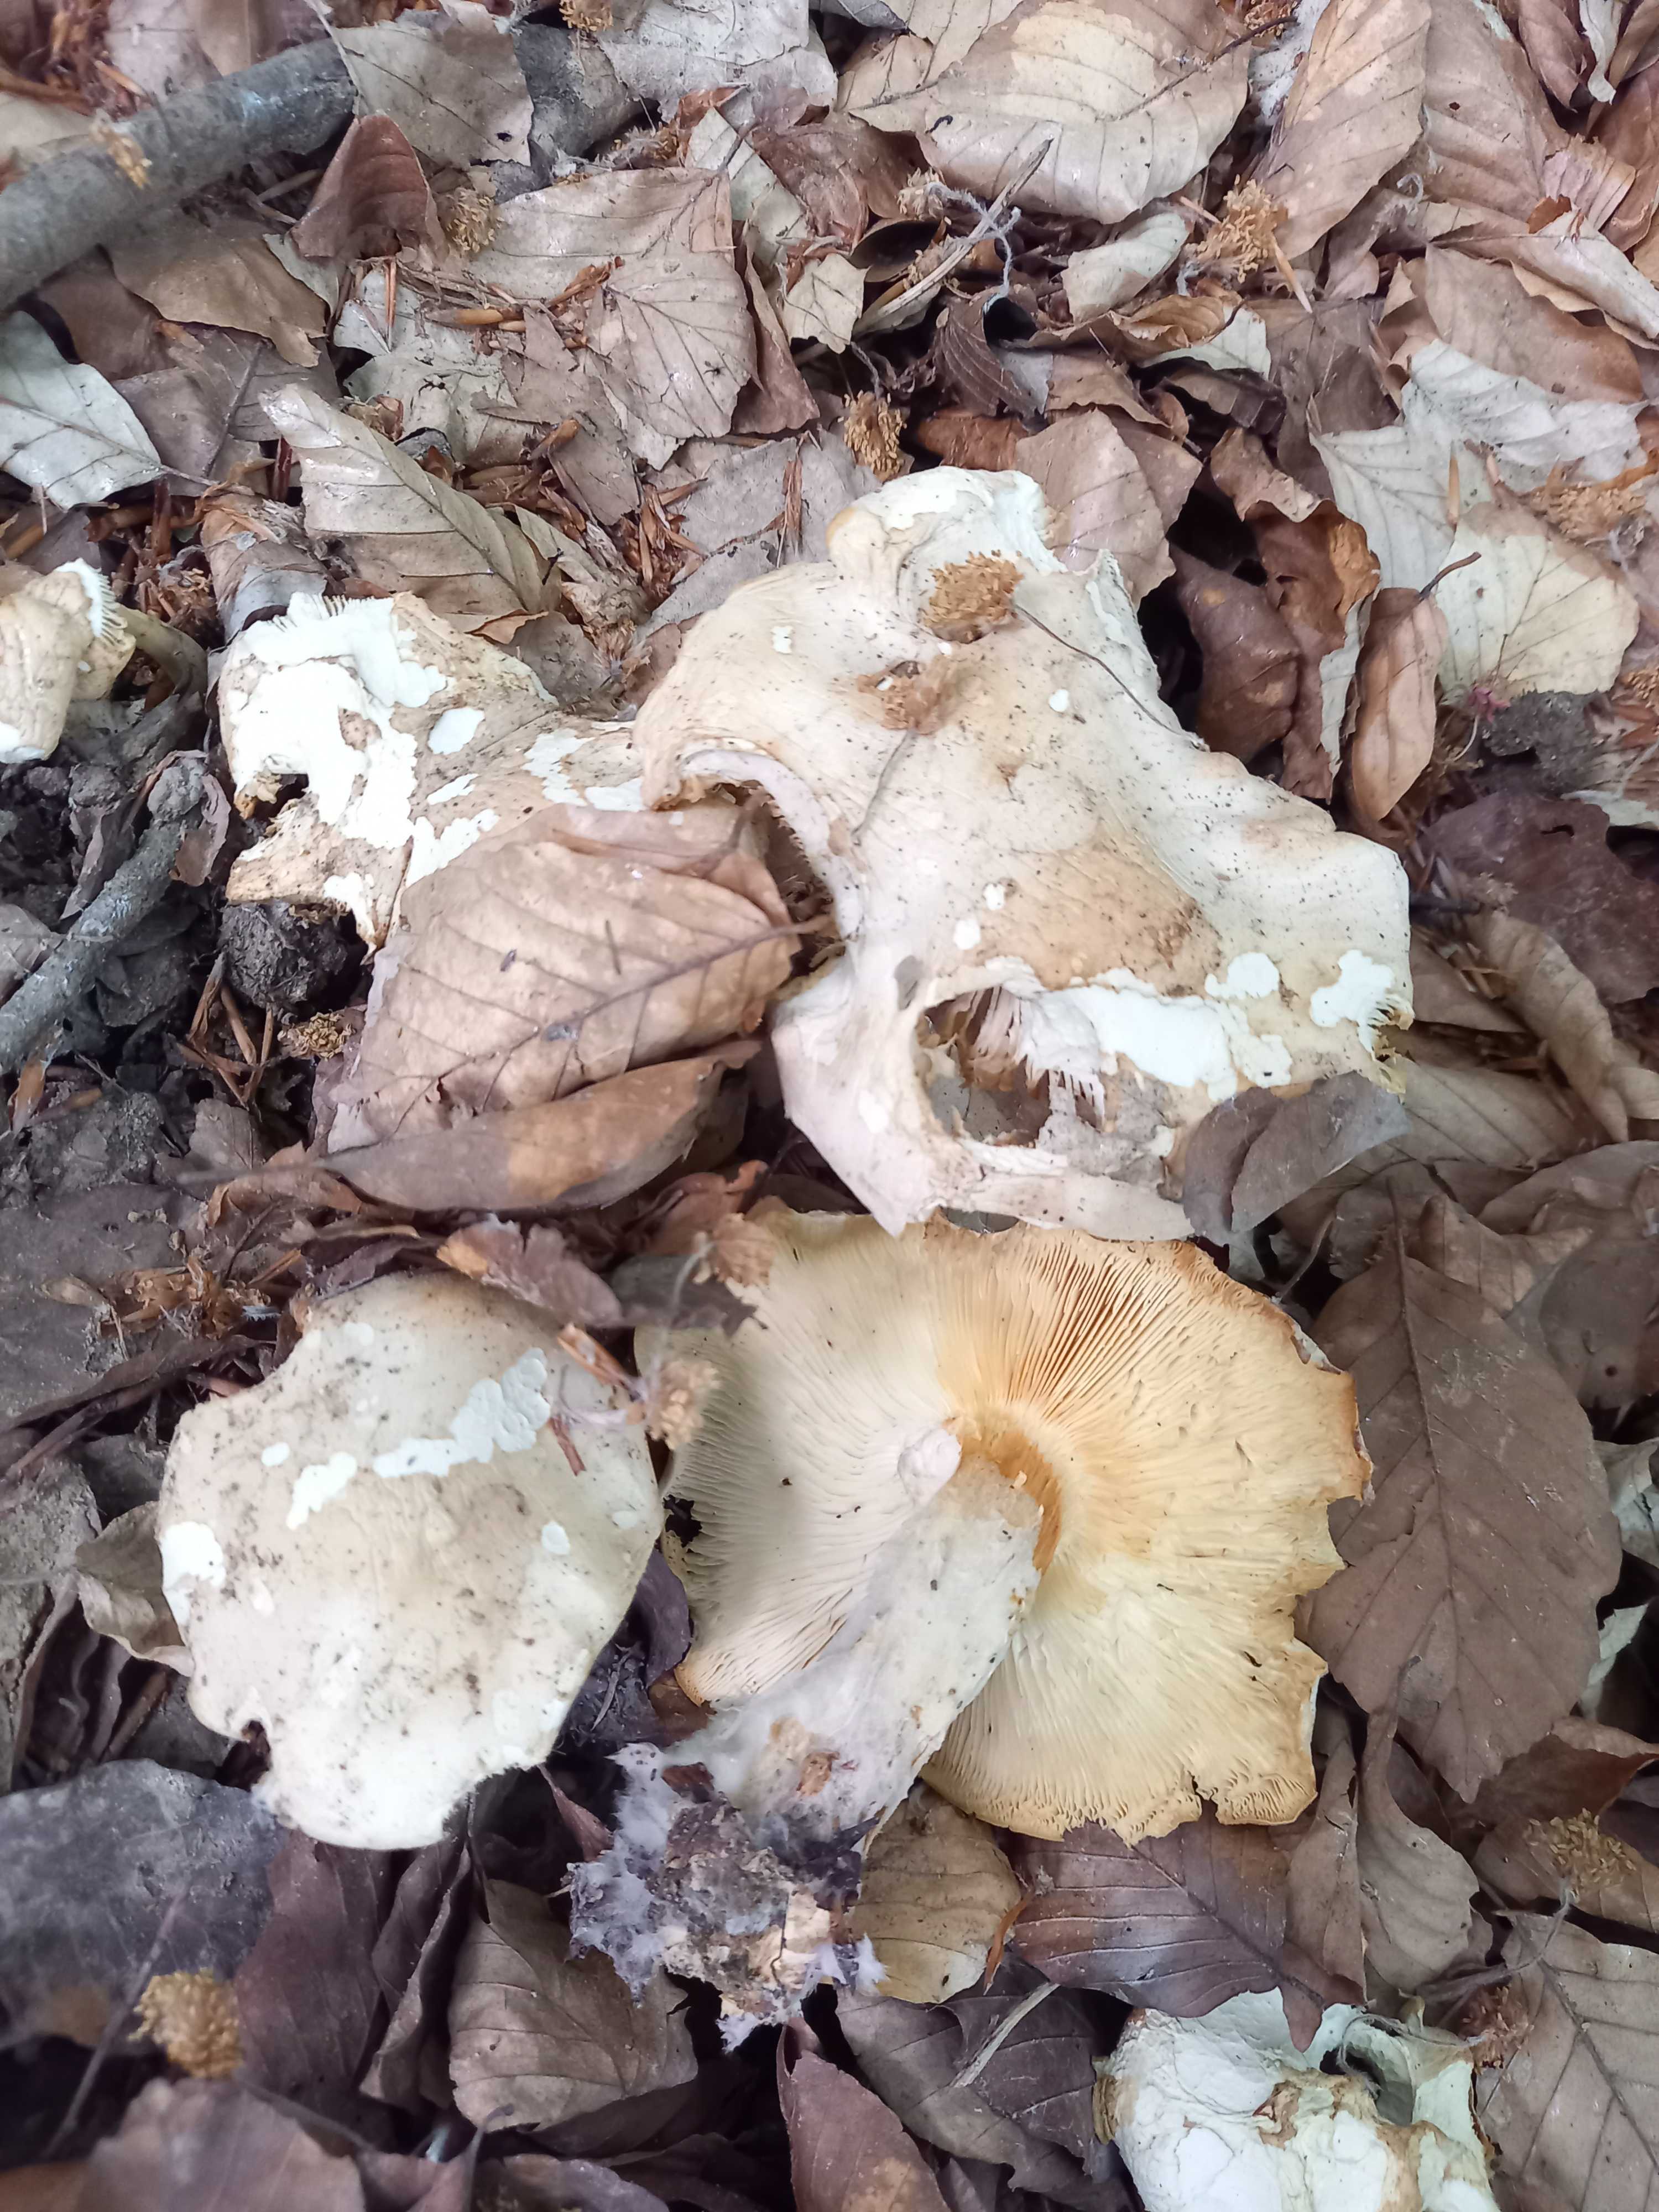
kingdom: Fungi
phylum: Basidiomycota
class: Agaricomycetes
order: Agaricales
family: Lyophyllaceae
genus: Calocybe
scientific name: Calocybe gambosa
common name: vårmusseron
